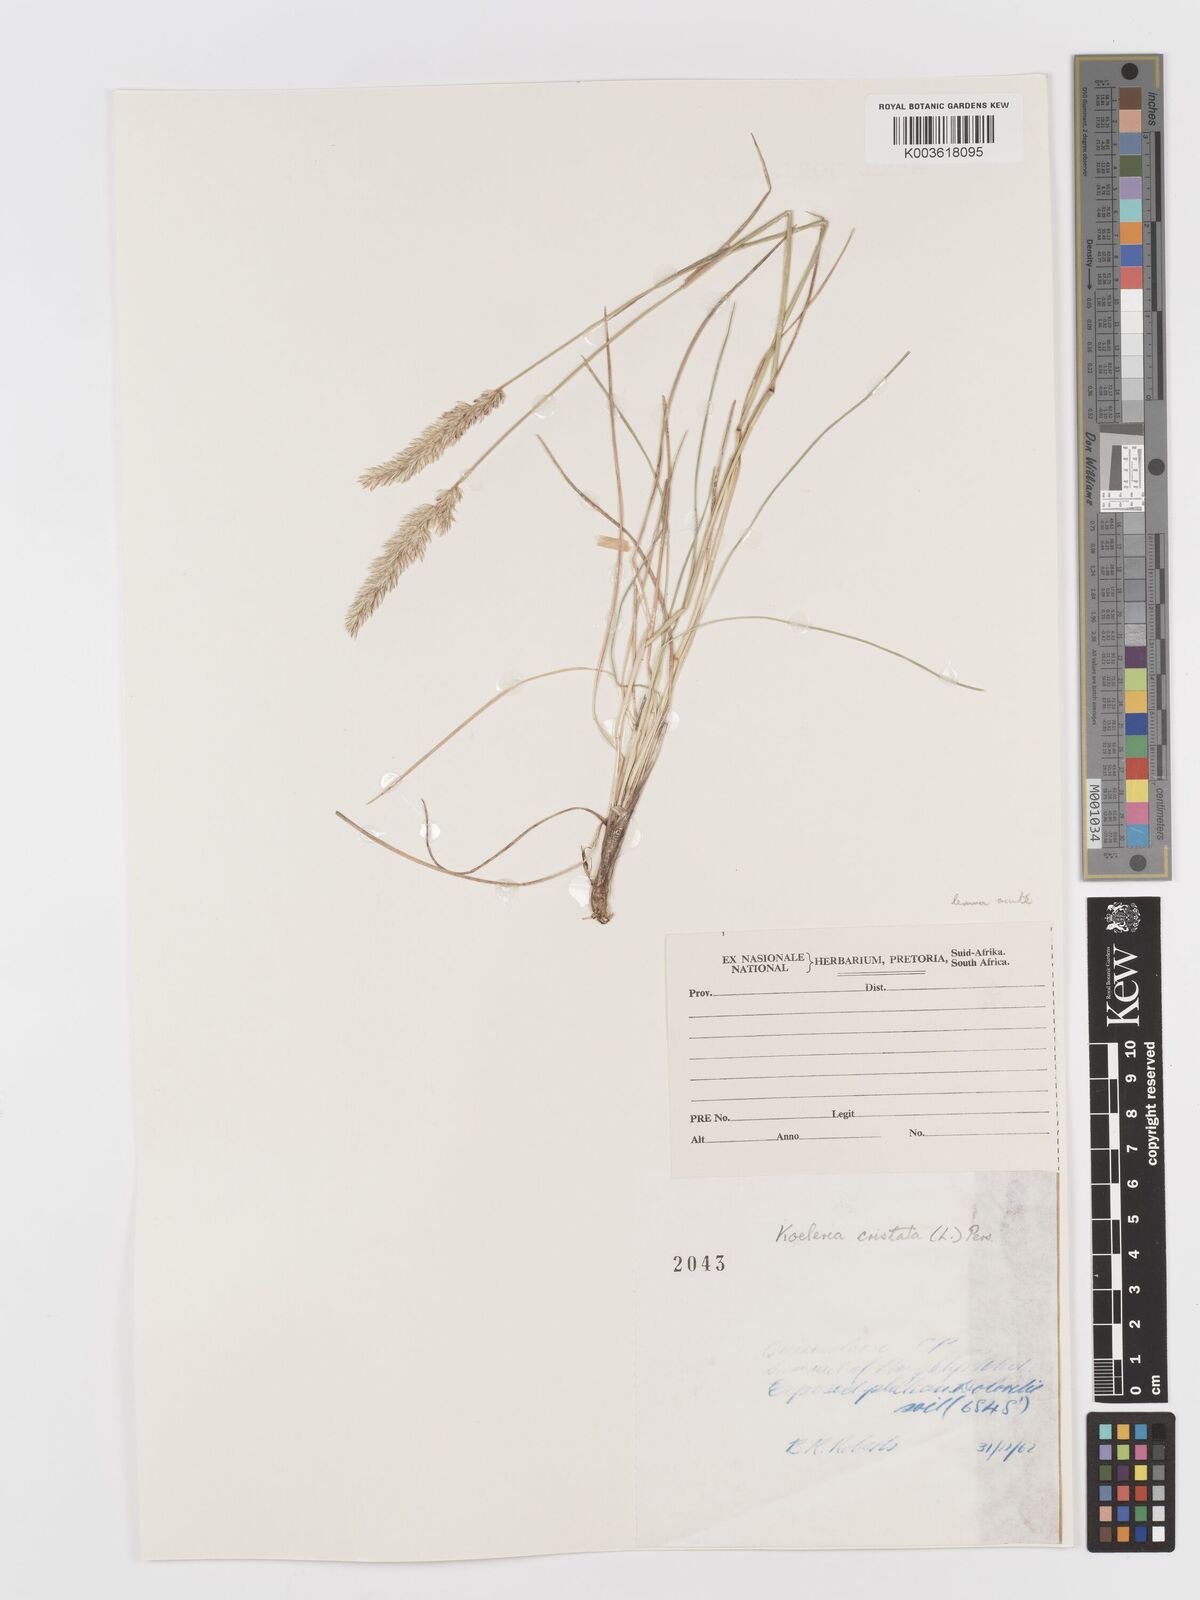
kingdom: Plantae
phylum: Tracheophyta
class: Liliopsida
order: Poales
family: Poaceae
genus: Koeleria
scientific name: Koeleria capensis
